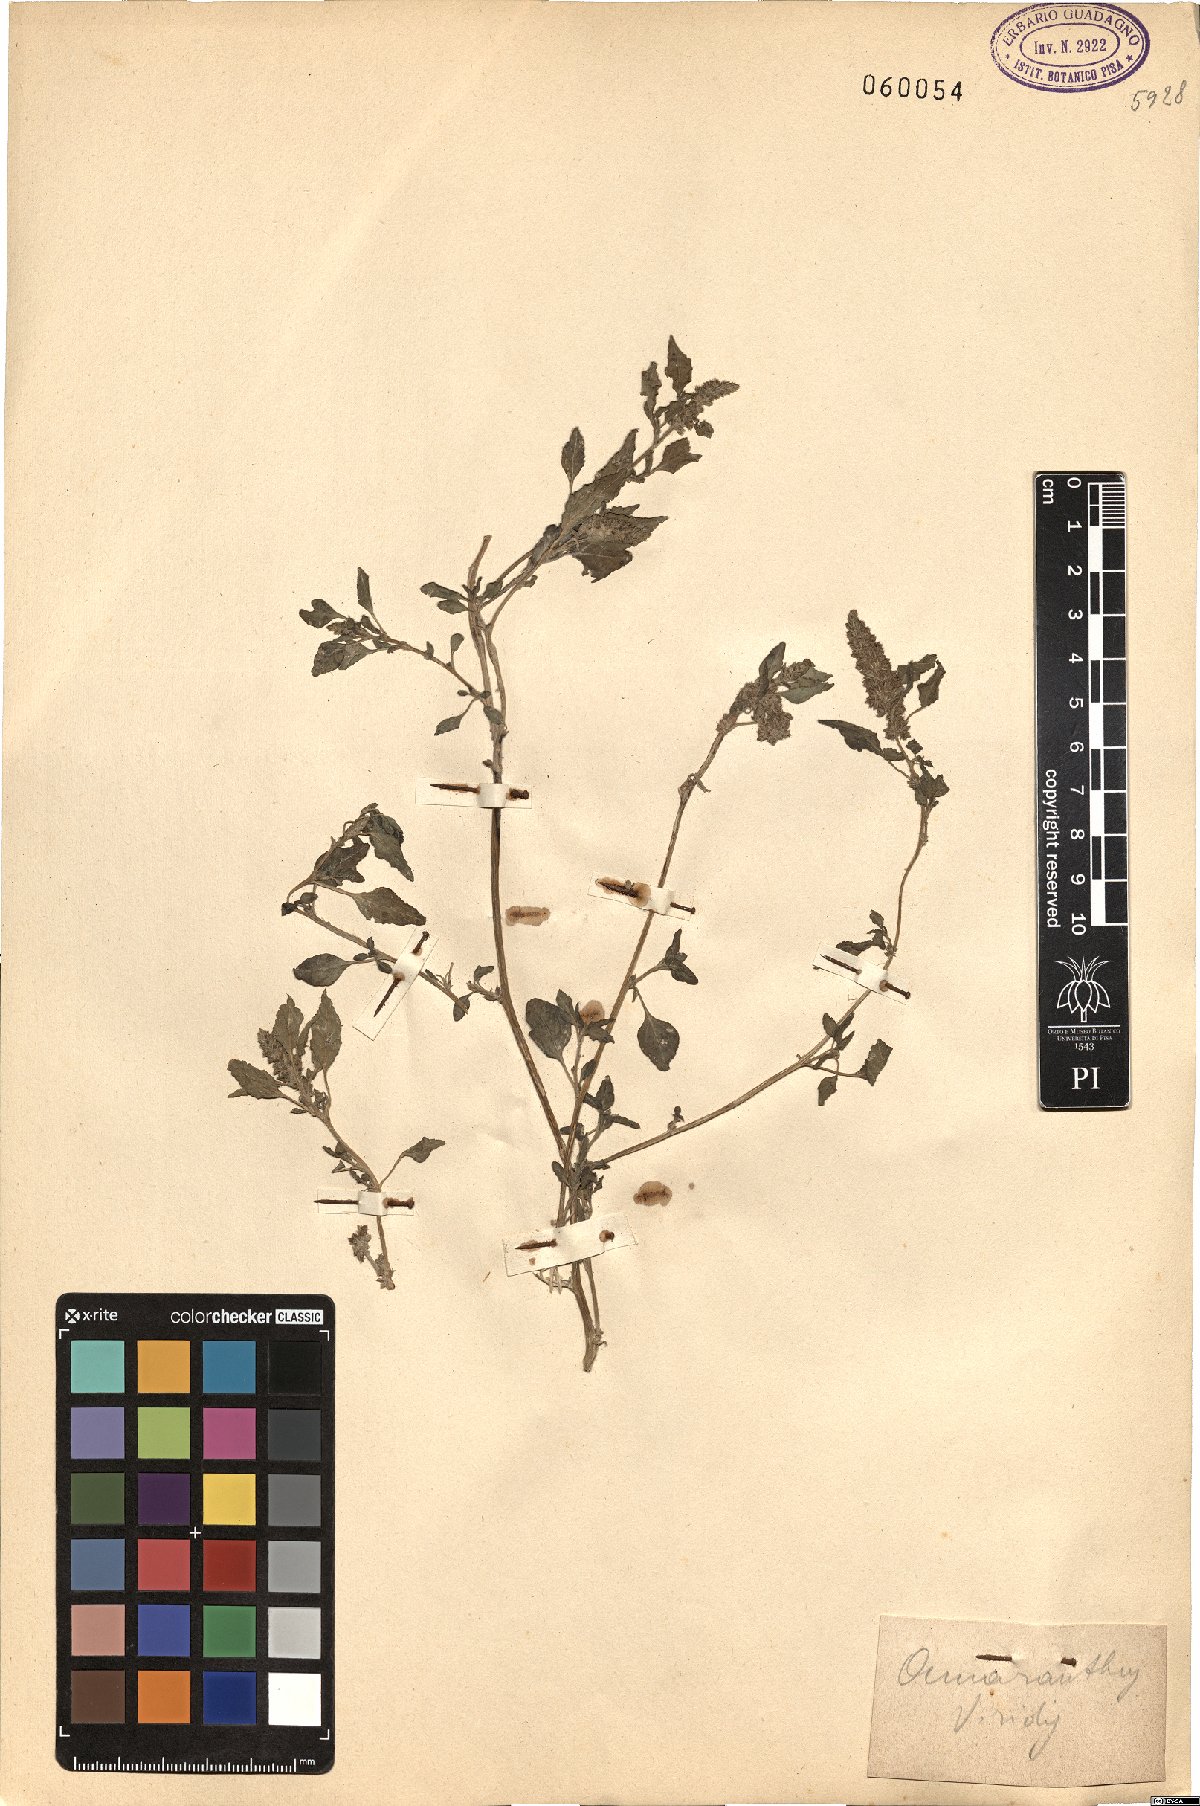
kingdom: Plantae
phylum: Tracheophyta
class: Magnoliopsida
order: Caryophyllales
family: Amaranthaceae
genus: Amaranthus
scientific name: Amaranthus viridis
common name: Slender amaranth
